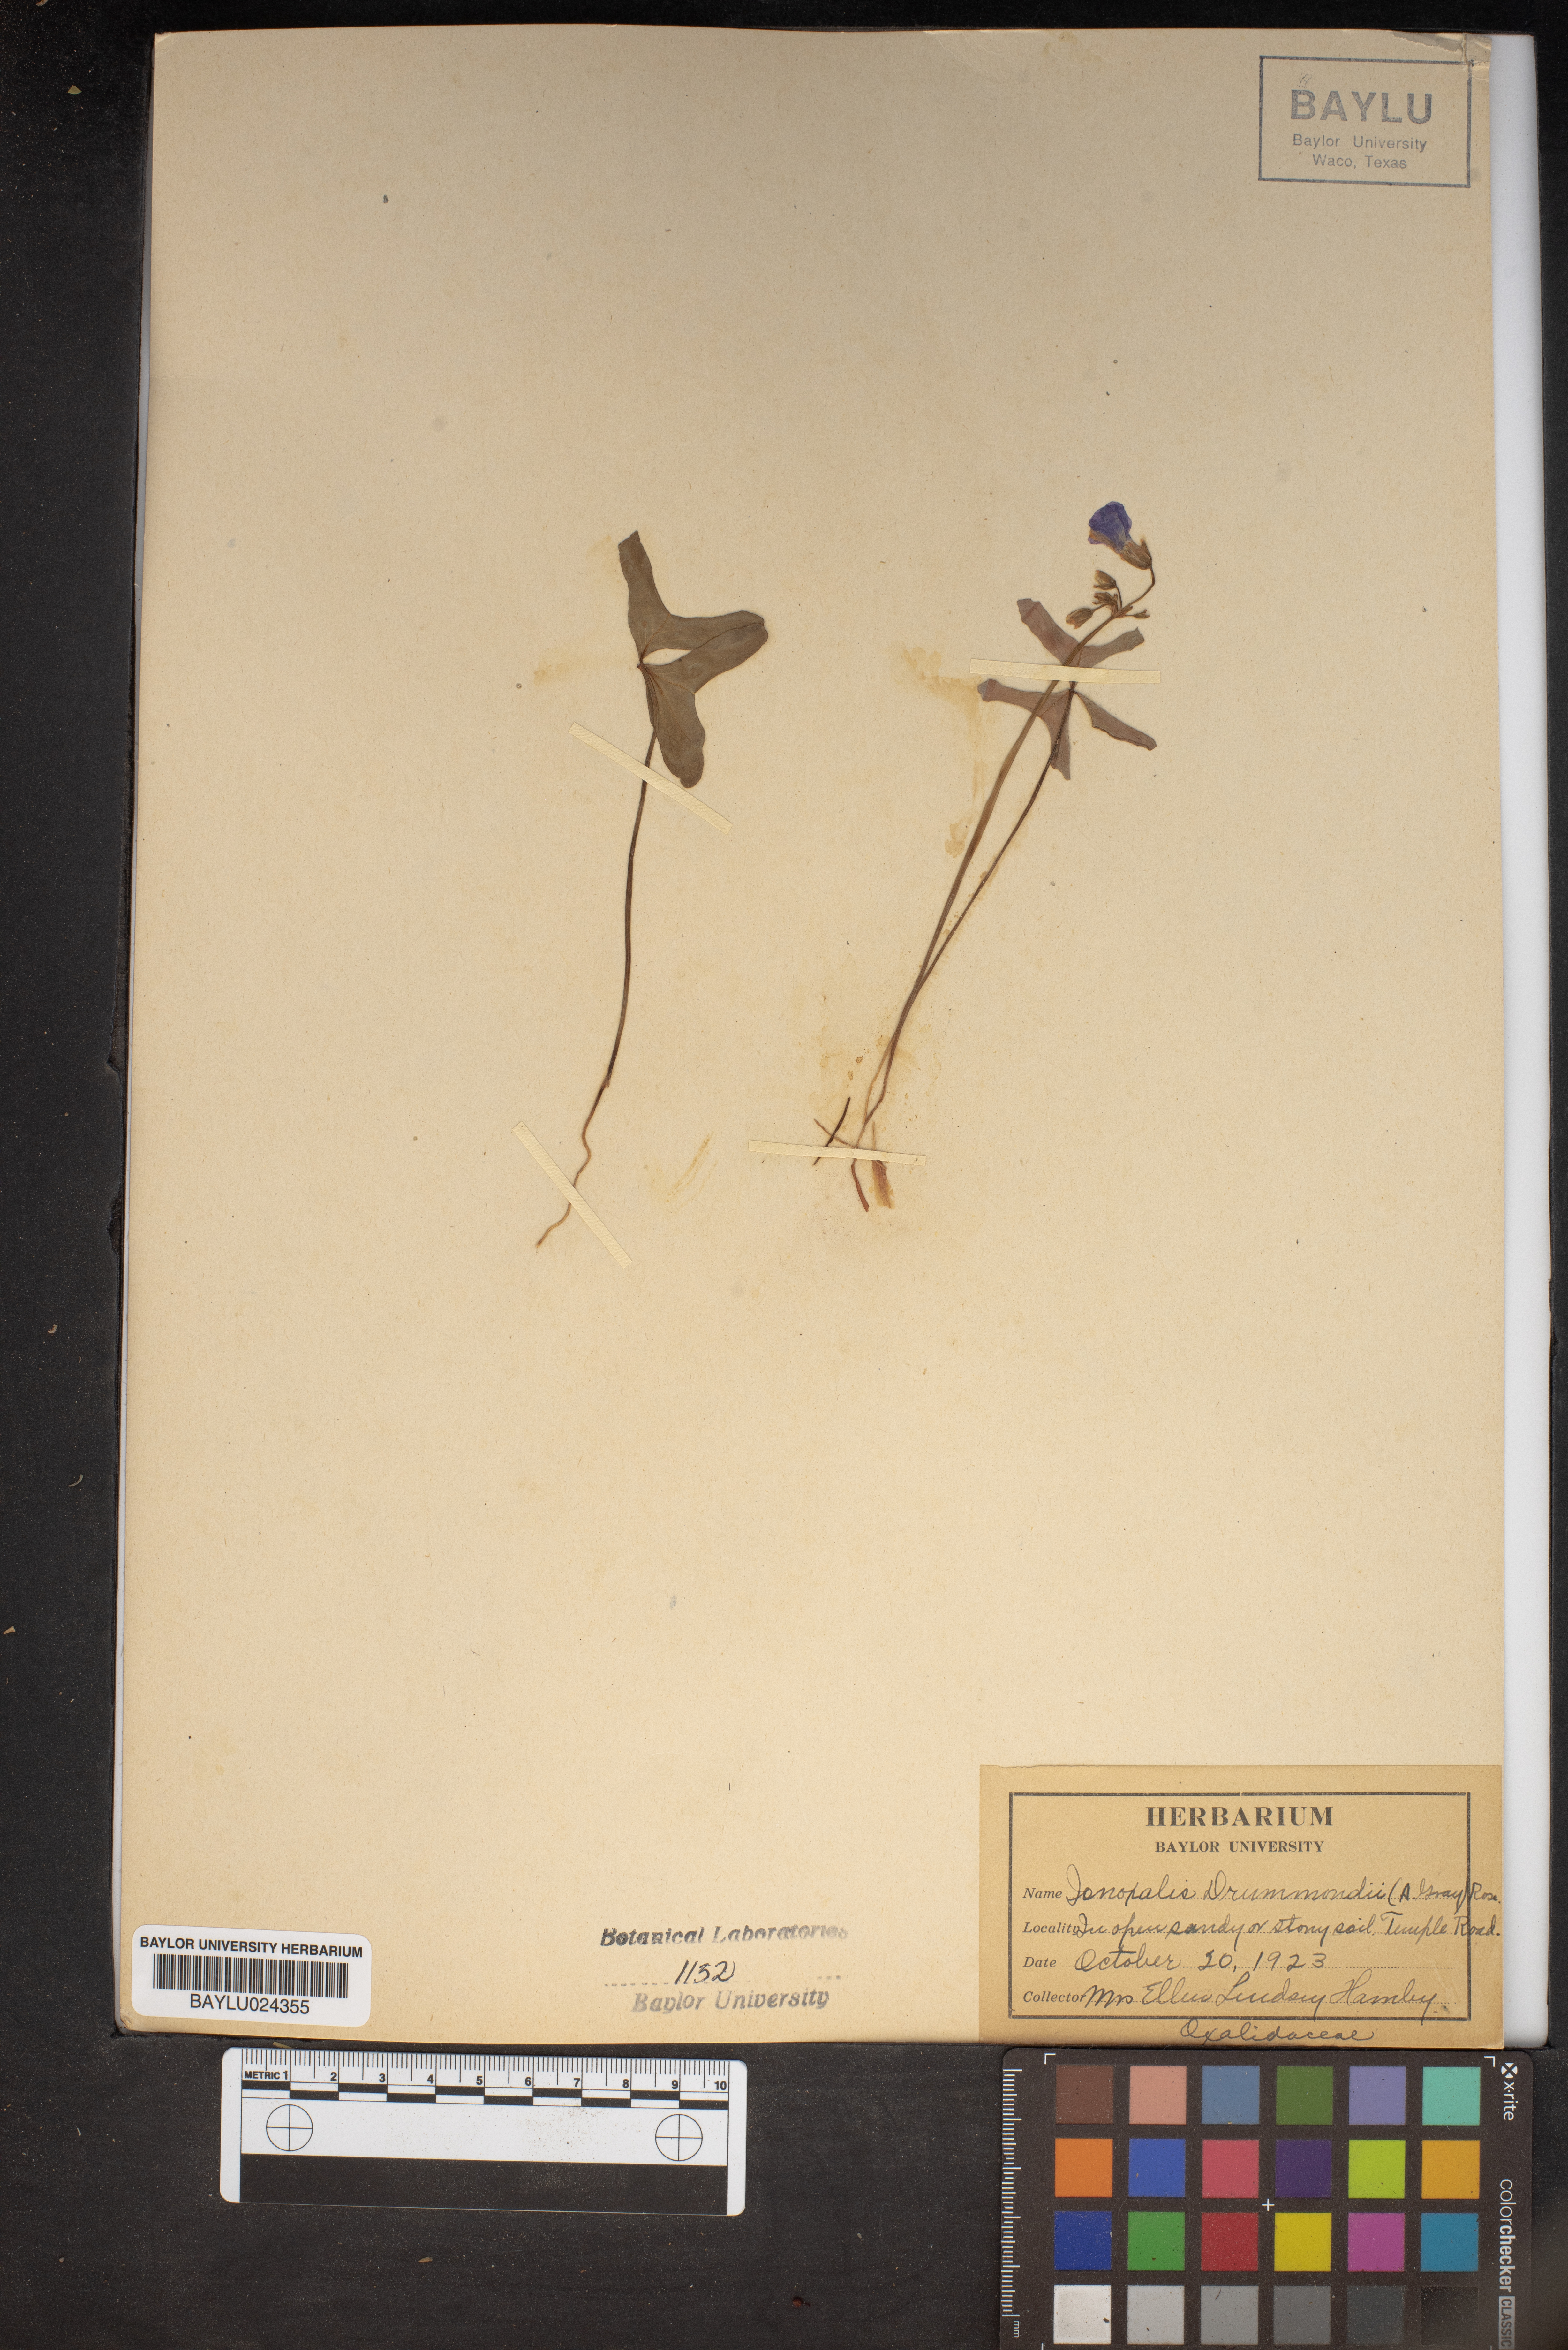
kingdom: Plantae
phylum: Tracheophyta
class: Magnoliopsida
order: Oxalidales
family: Oxalidaceae
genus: Oxalis
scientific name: Oxalis drummondii
